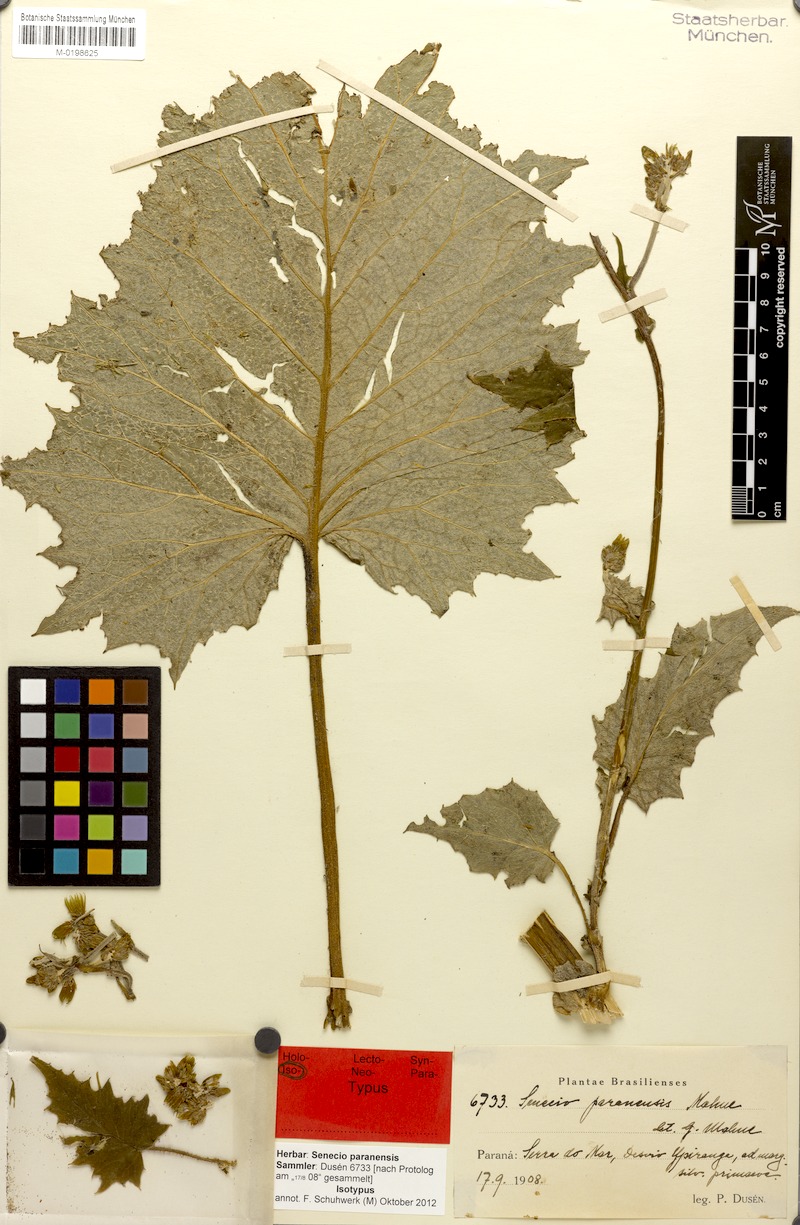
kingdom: Plantae
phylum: Tracheophyta
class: Magnoliopsida
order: Asterales
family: Asteraceae
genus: Dendrophorbium
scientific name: Dendrophorbium paranense
